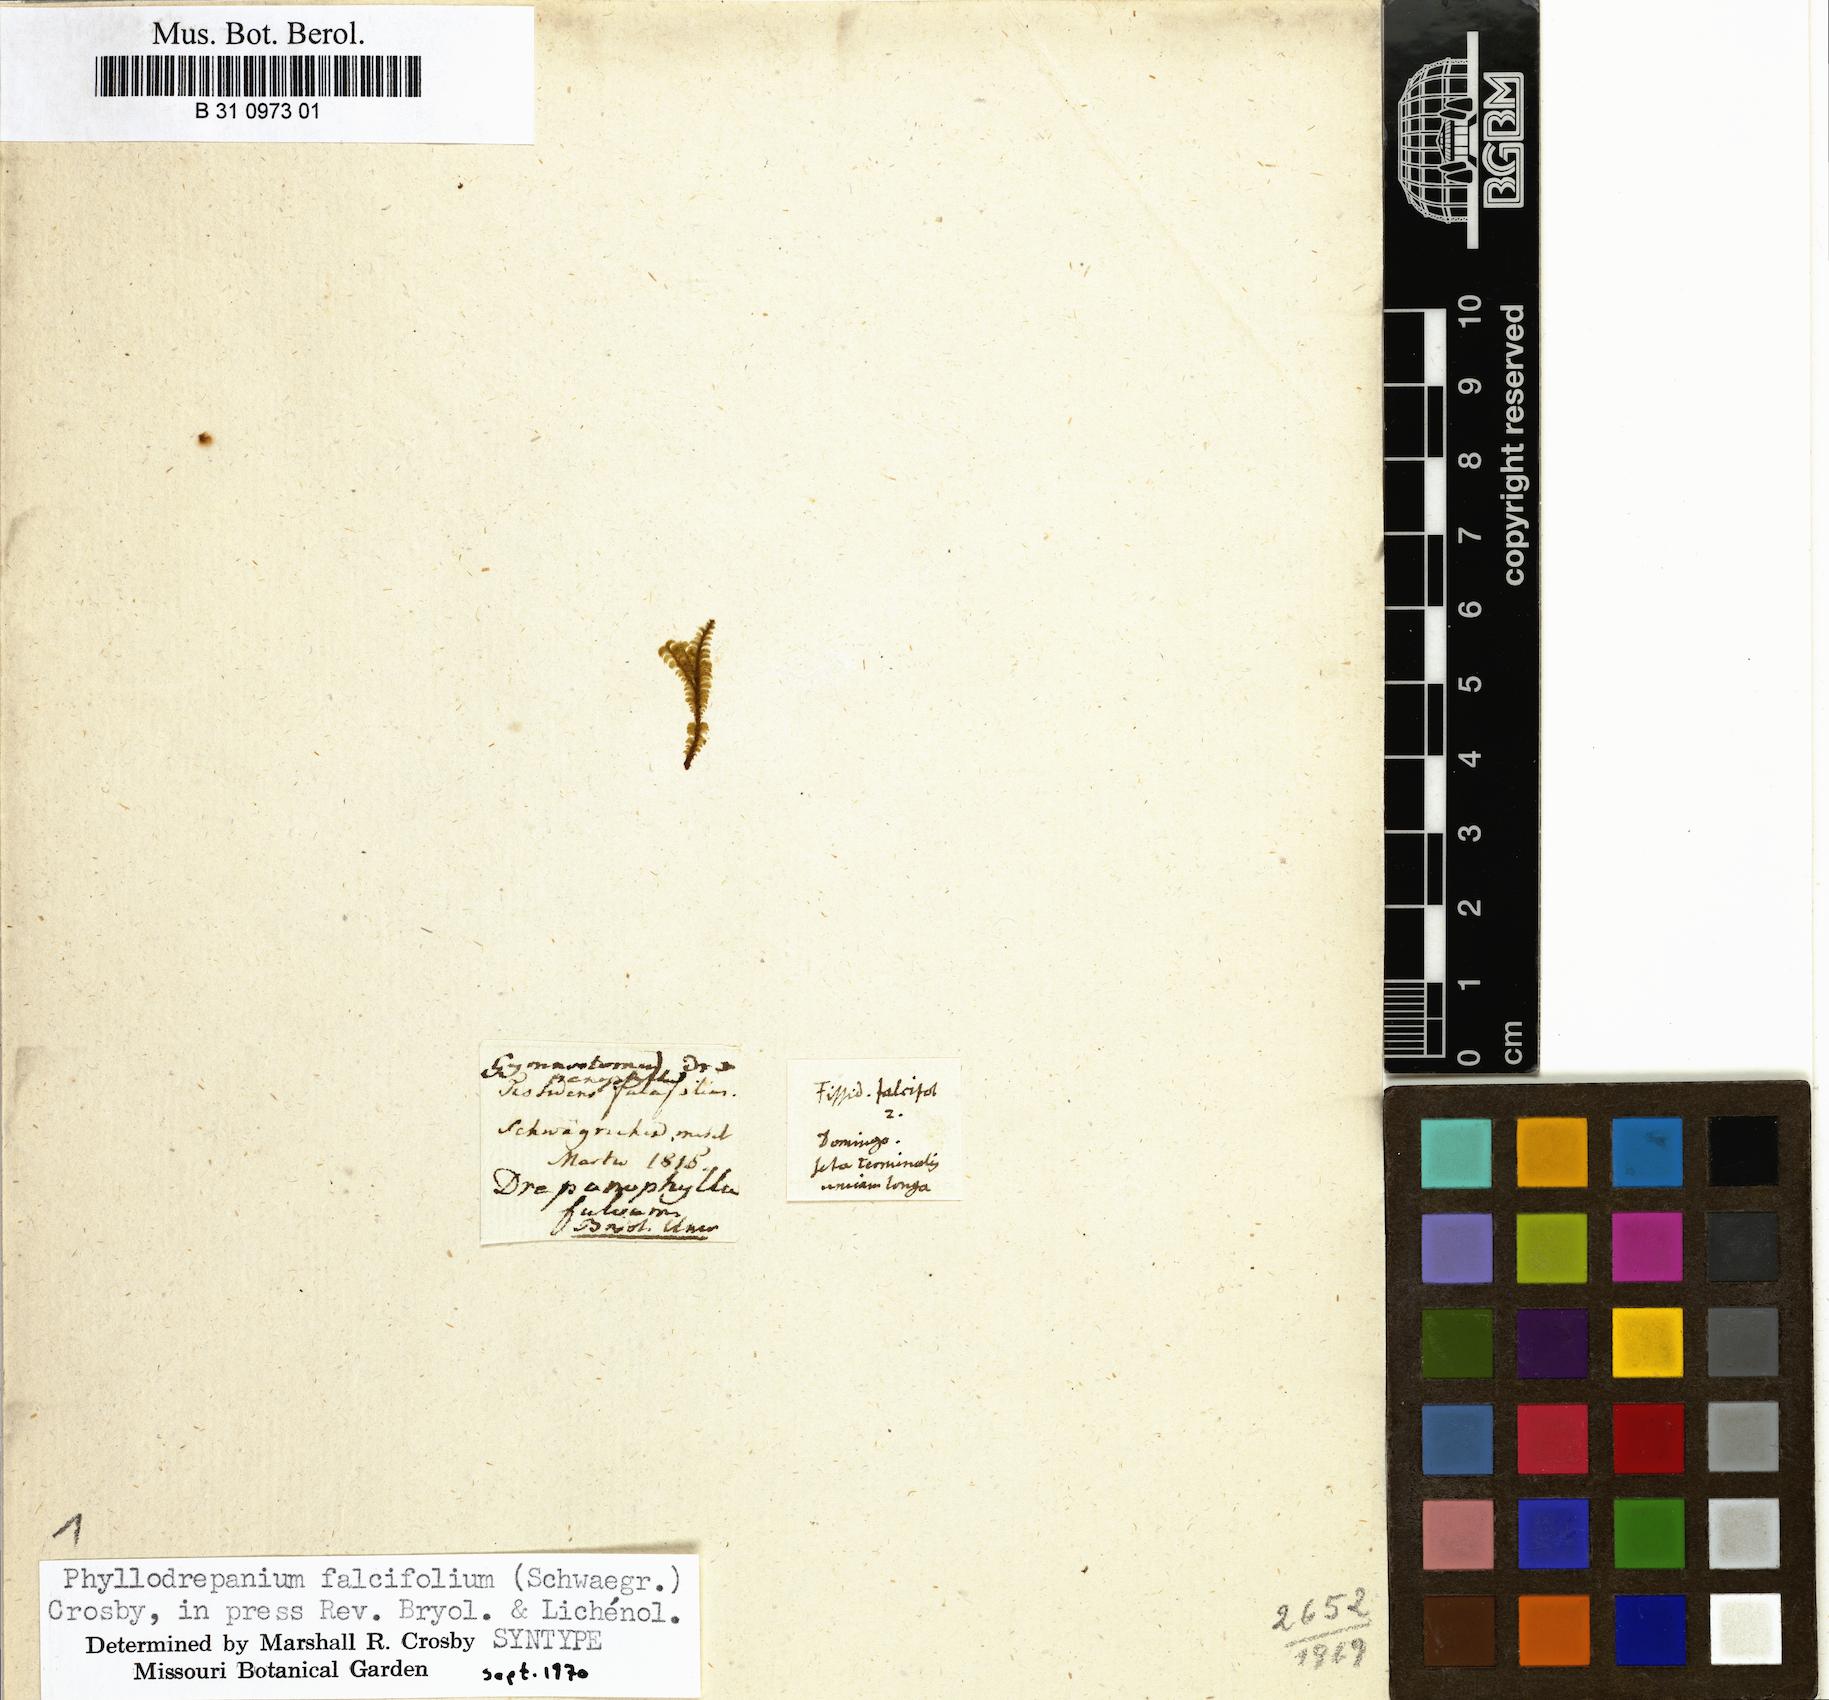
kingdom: Plantae
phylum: Bryophyta
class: Bryopsida
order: Bryales
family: Phyllodrepaniaceae
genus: Phyllodrepanium
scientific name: Phyllodrepanium falcifolium
